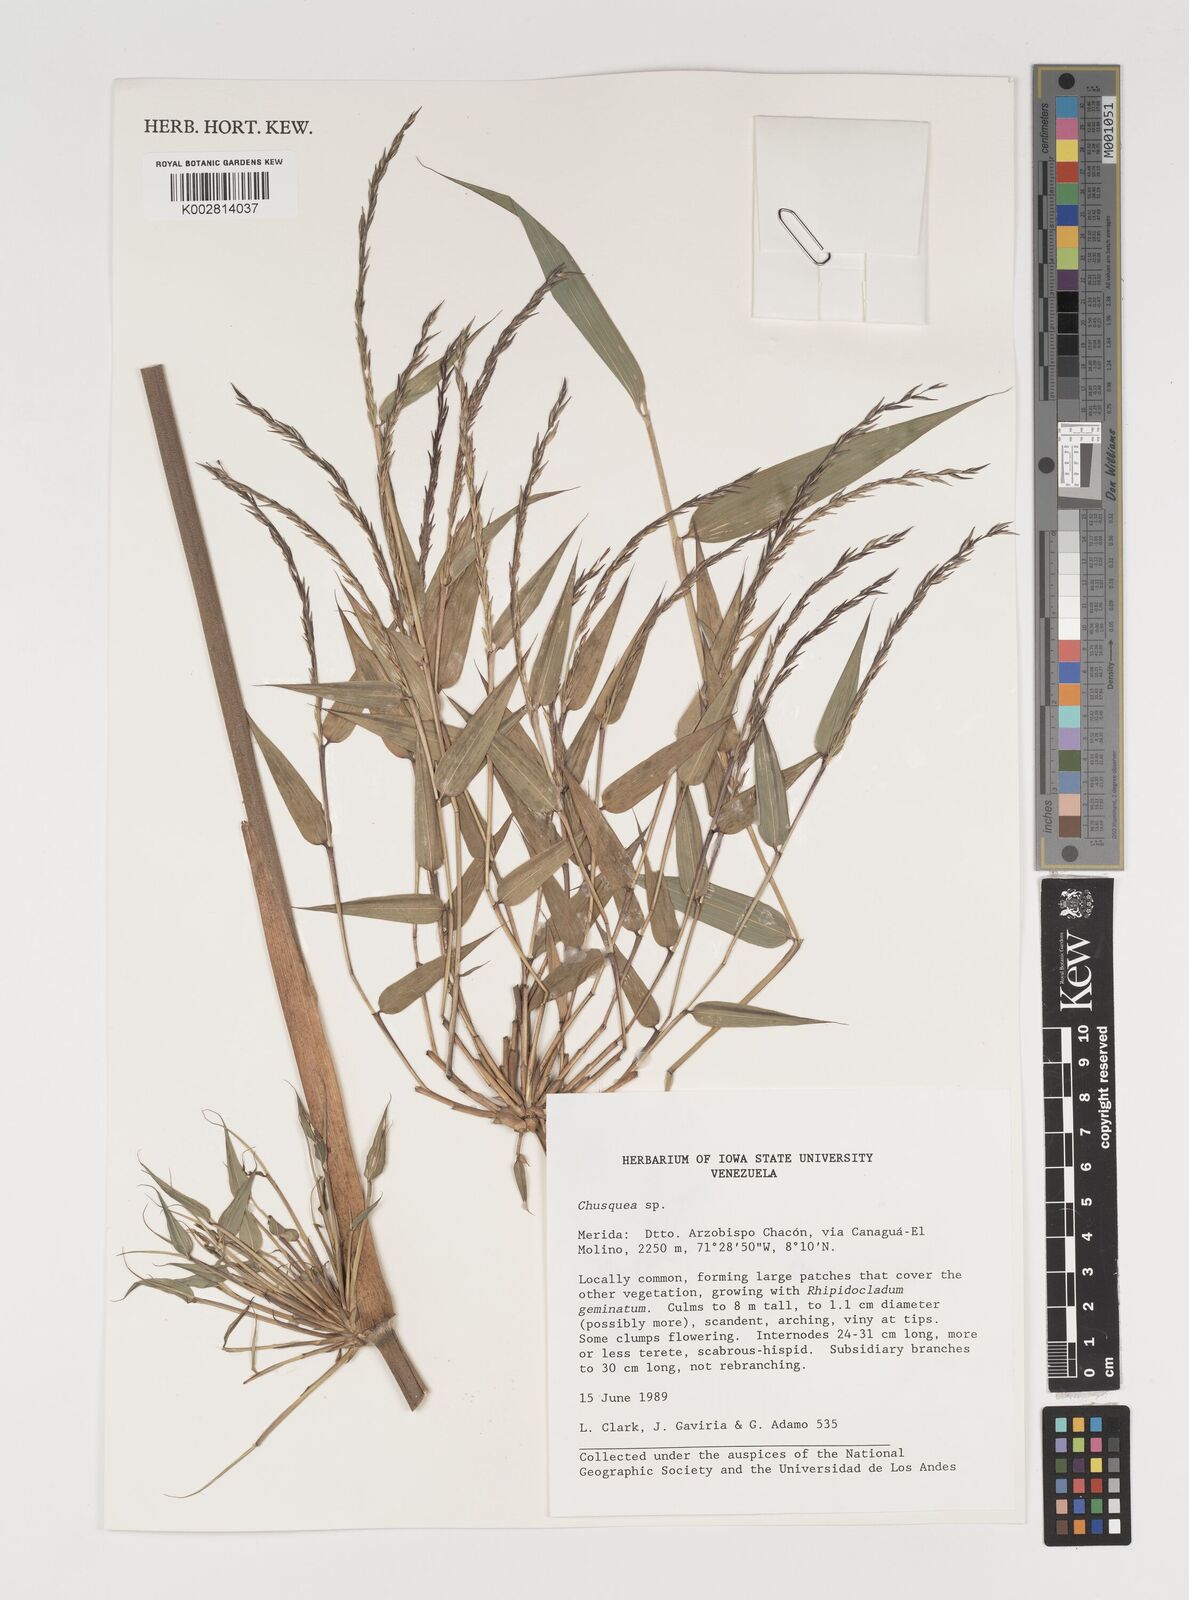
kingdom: Plantae
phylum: Tracheophyta
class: Liliopsida
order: Poales
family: Poaceae
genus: Chusquea
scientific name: Chusquea
